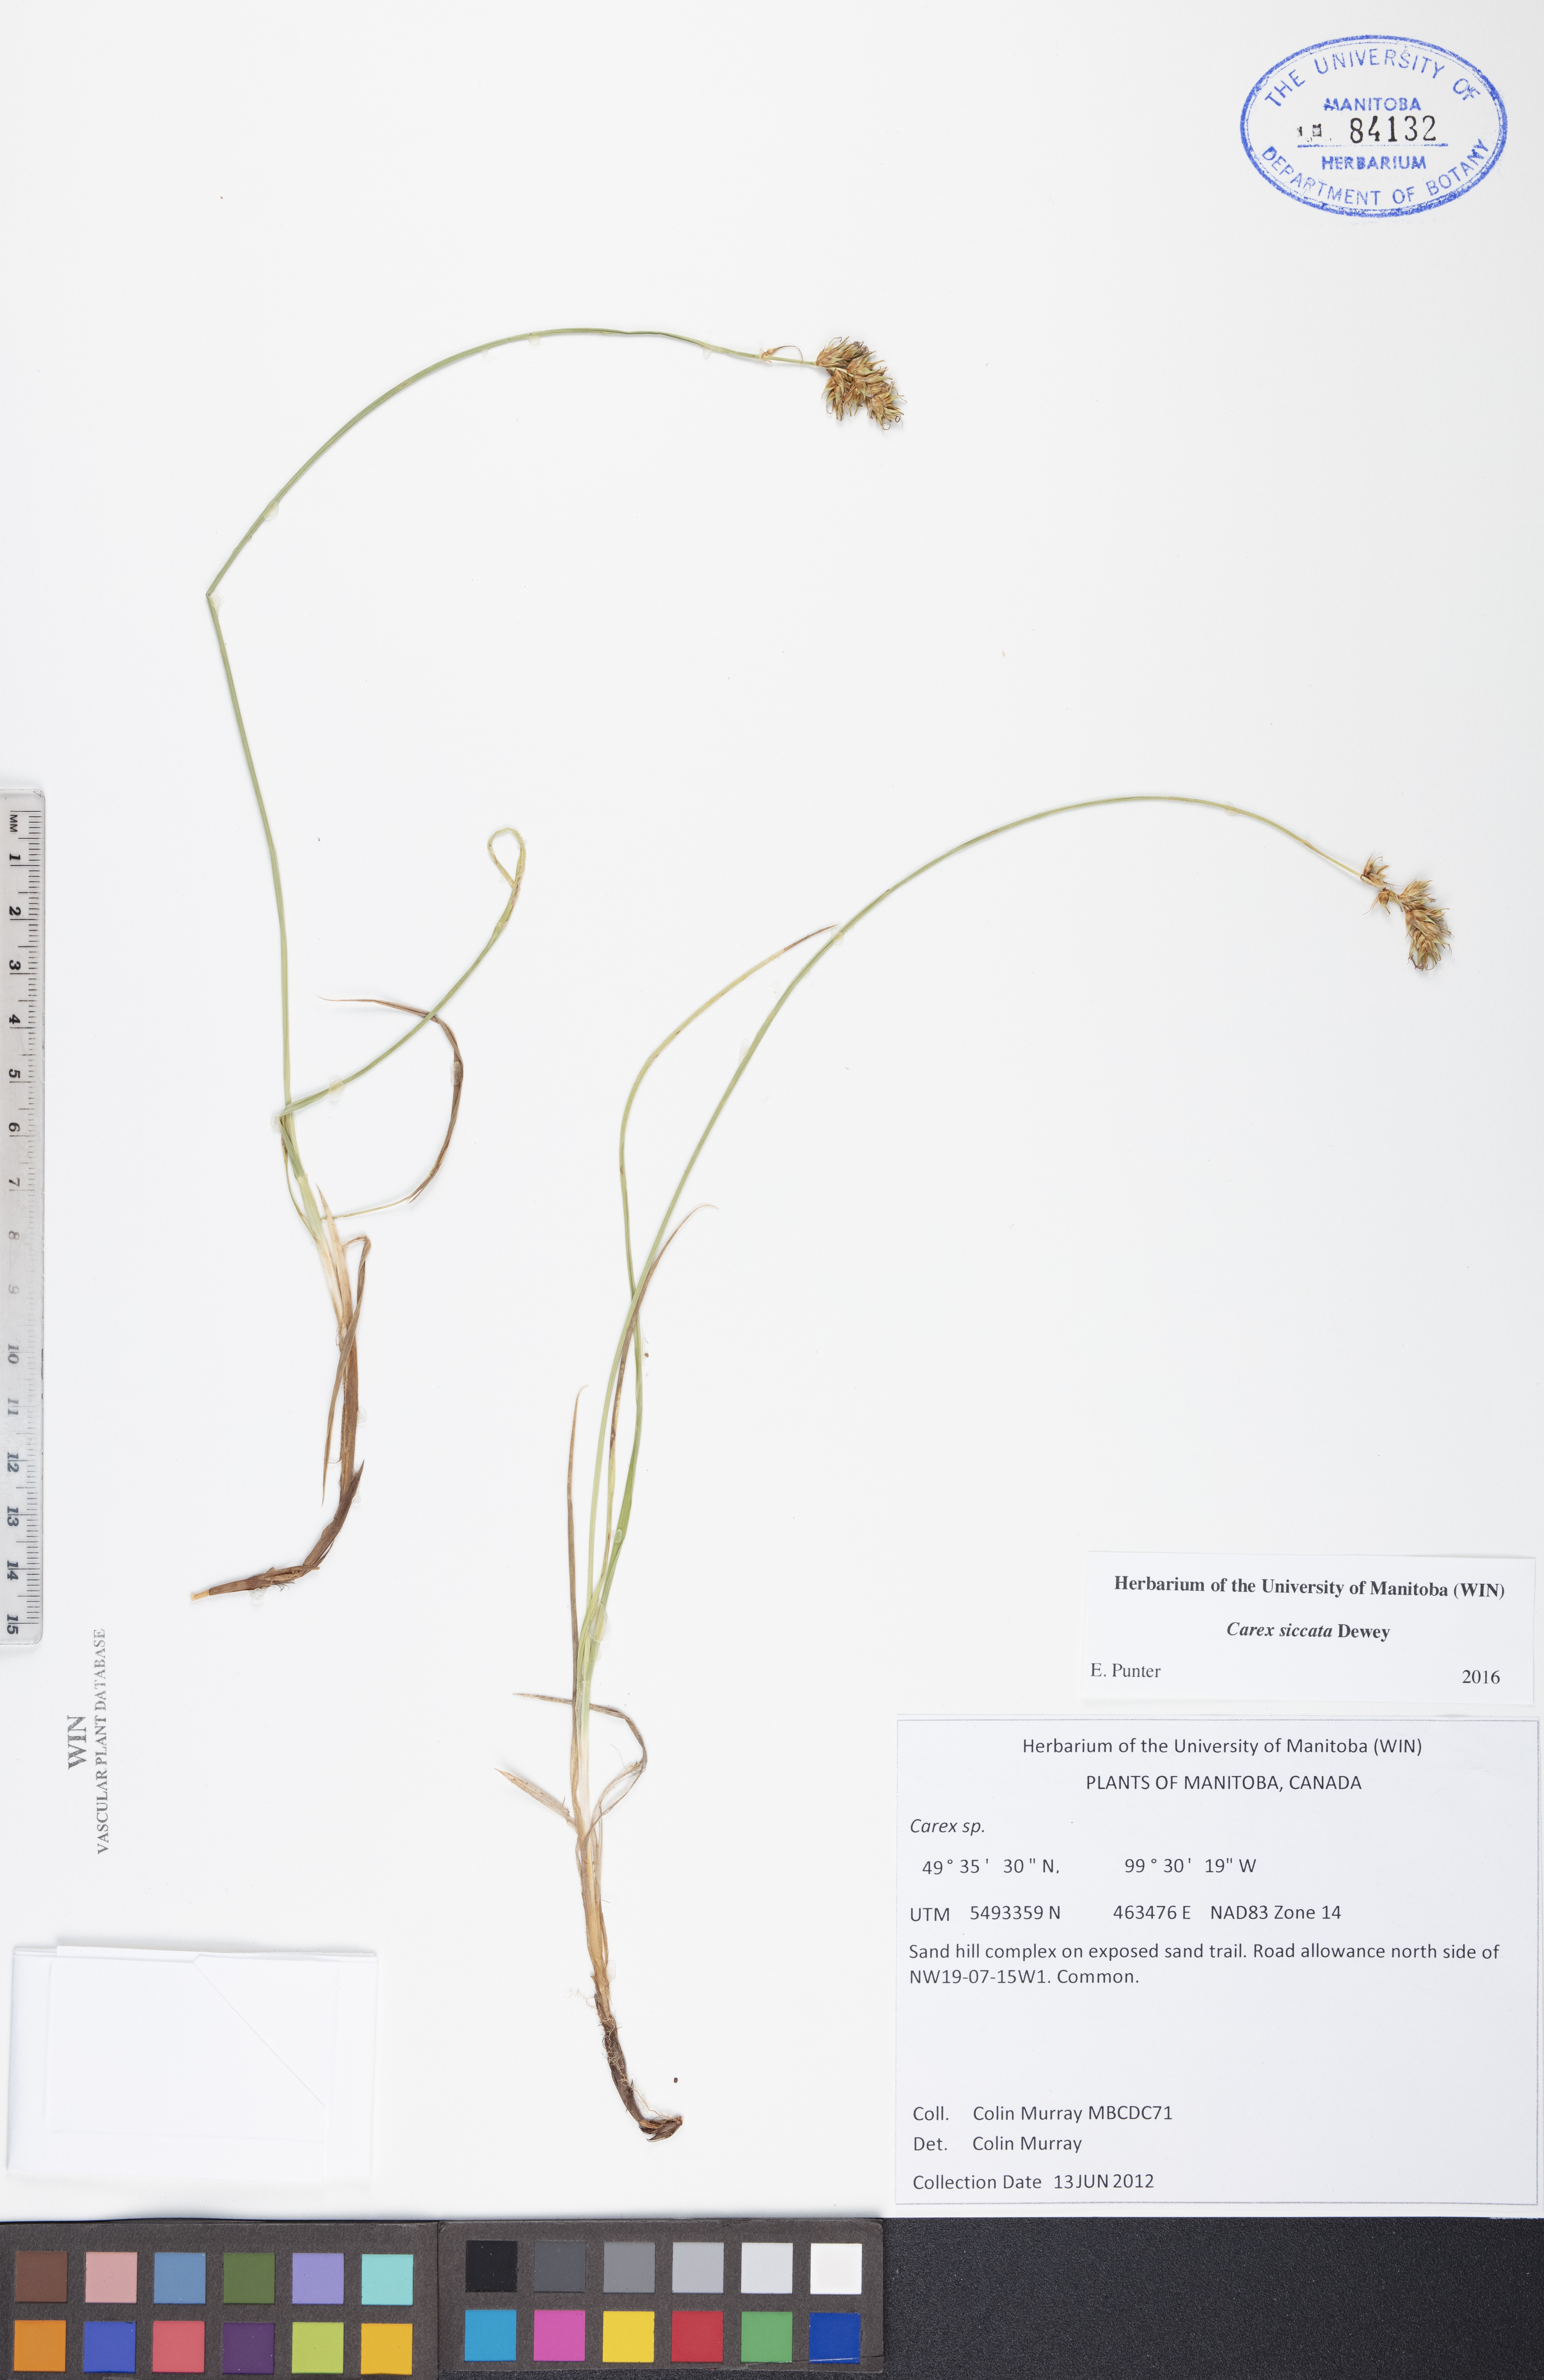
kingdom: Plantae
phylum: Tracheophyta
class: Liliopsida
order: Poales
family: Cyperaceae
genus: Carex
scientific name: Carex siccata
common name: Dry sedge
